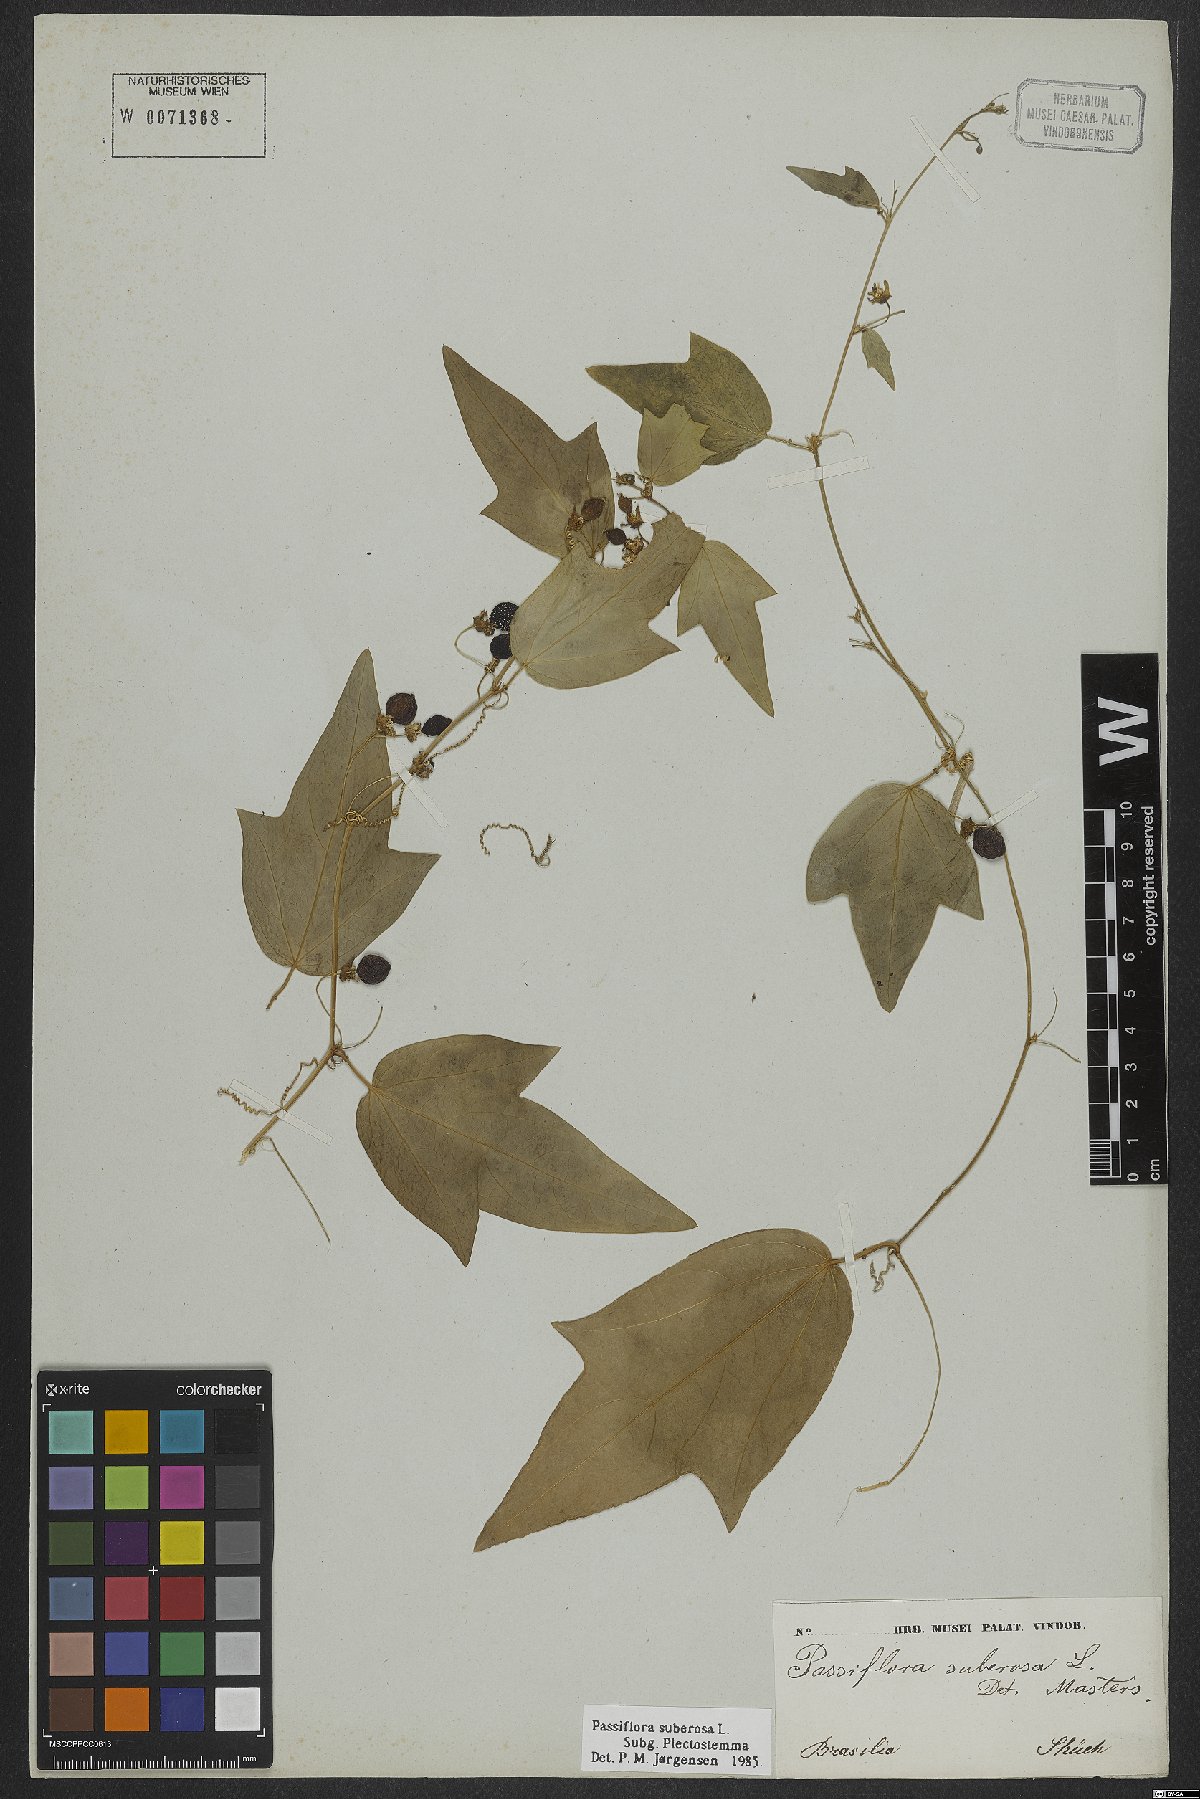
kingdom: Plantae
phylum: Tracheophyta
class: Magnoliopsida
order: Malpighiales
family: Passifloraceae
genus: Passiflora
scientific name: Passiflora suberosa
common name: Wild passionfruit
